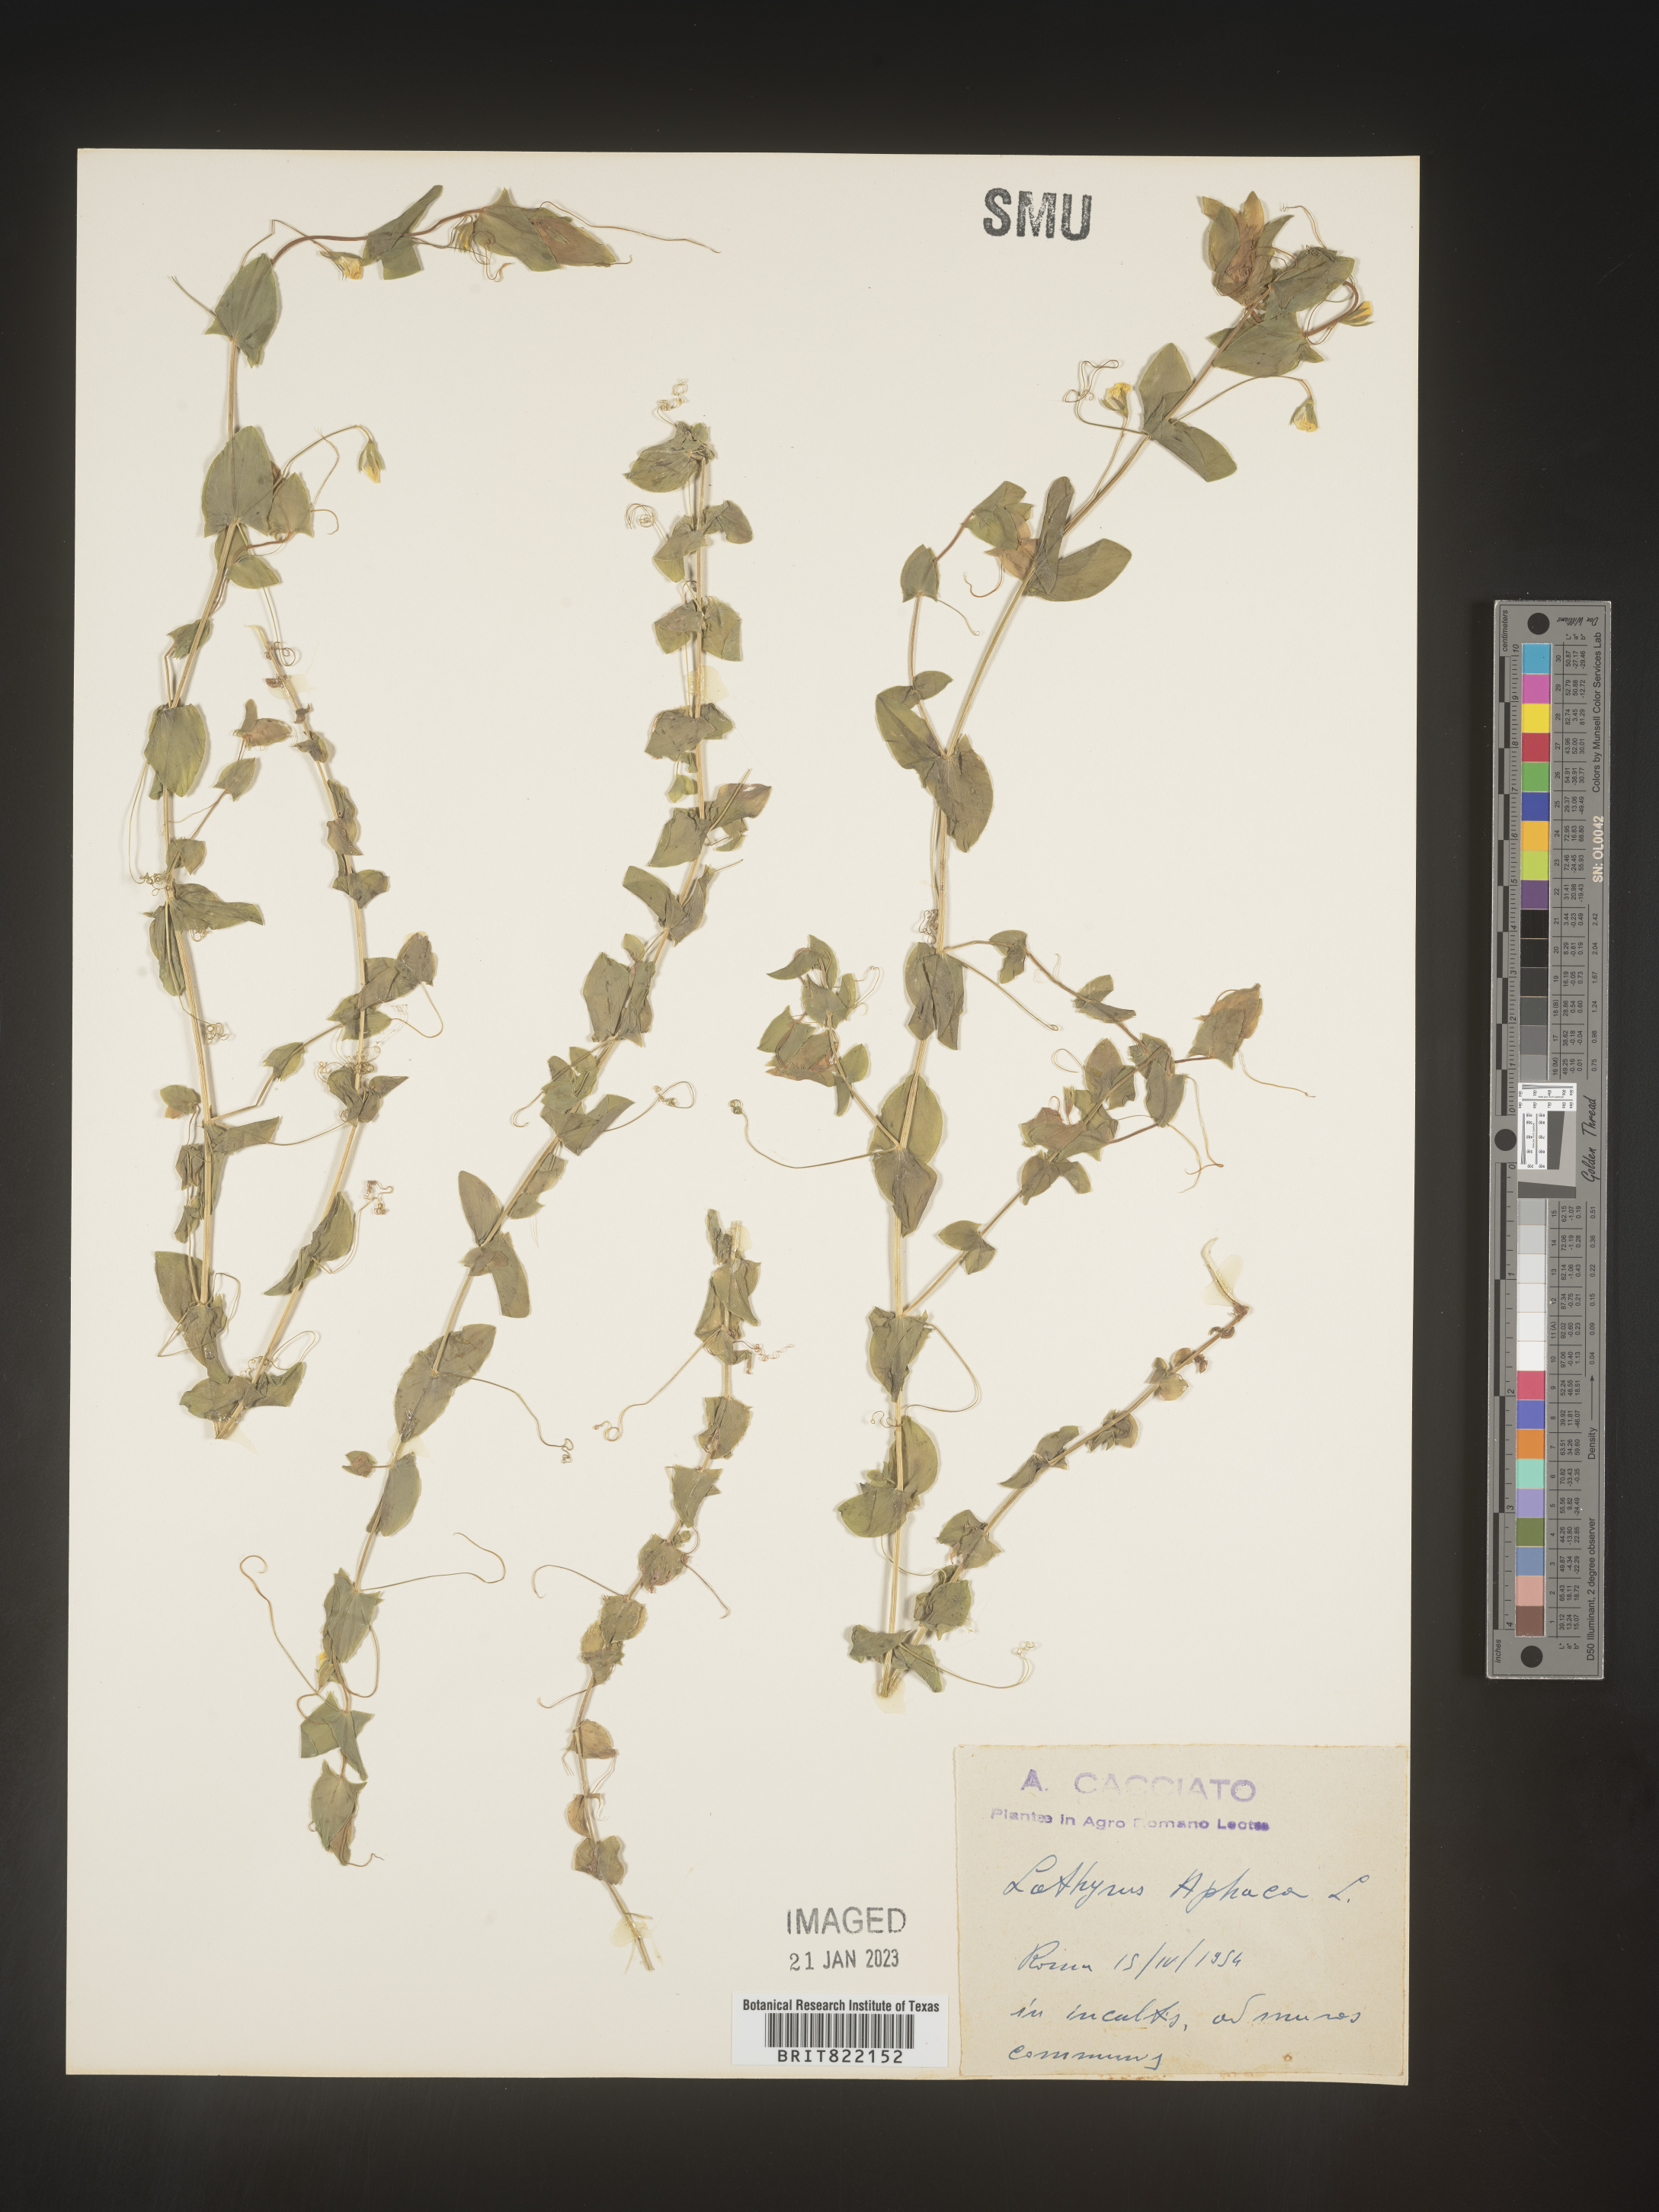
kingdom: Plantae
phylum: Tracheophyta
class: Magnoliopsida
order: Fabales
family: Fabaceae
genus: Lathyrus
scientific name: Lathyrus
